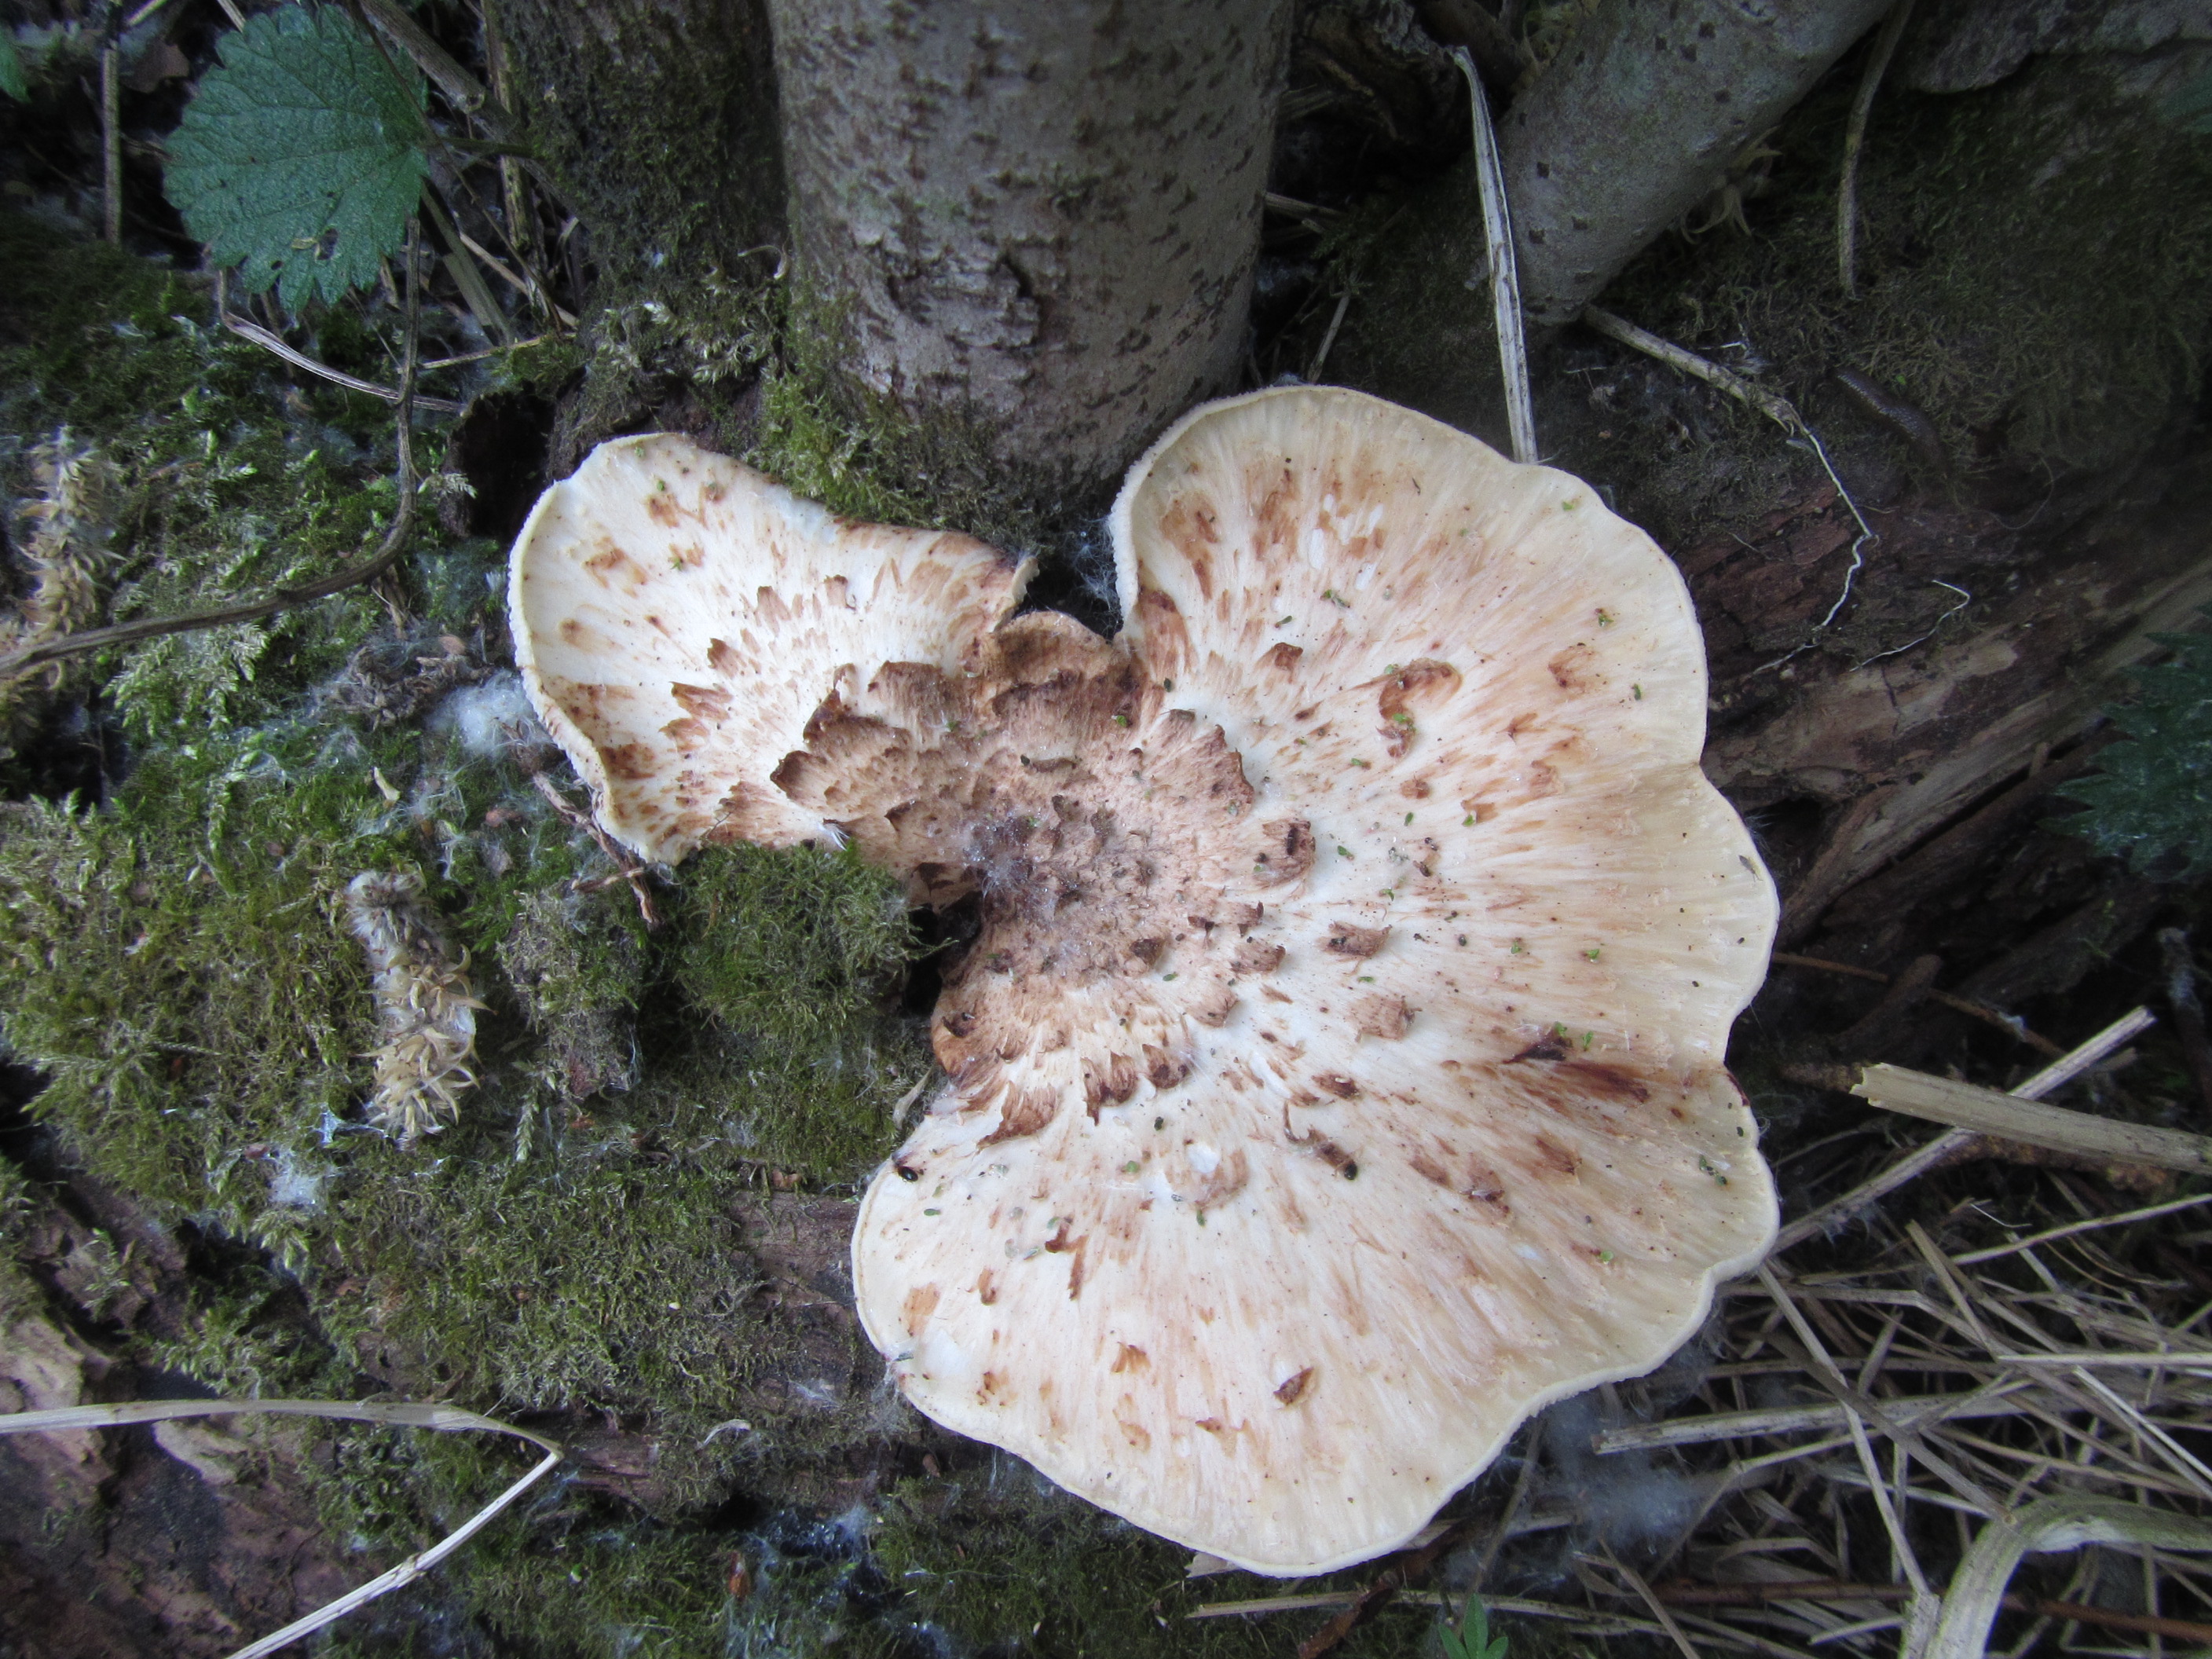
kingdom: Fungi
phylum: Basidiomycota
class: Agaricomycetes
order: Polyporales
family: Polyporaceae
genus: Cerioporus
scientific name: Cerioporus squamosus
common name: Dryad's saddle
